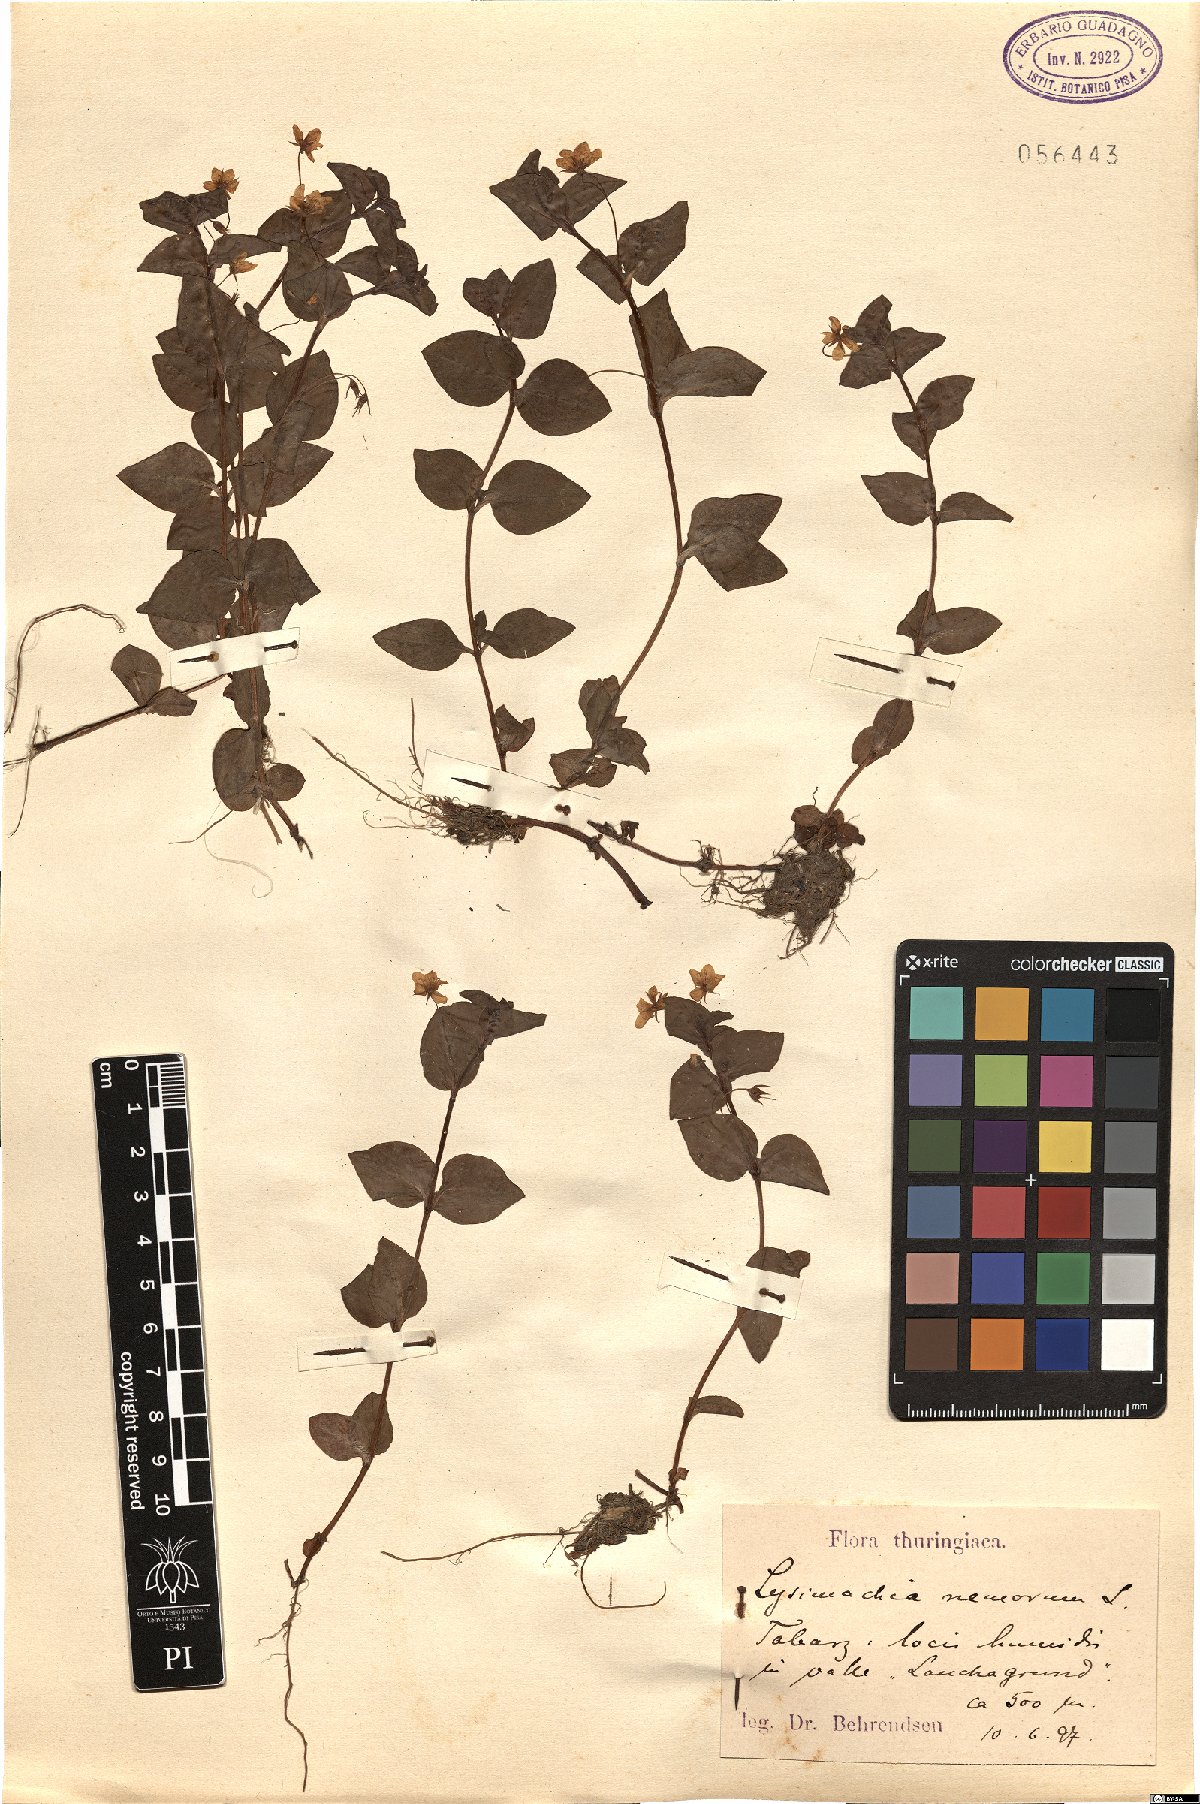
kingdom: Plantae
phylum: Tracheophyta
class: Magnoliopsida
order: Ericales
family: Primulaceae
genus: Lysimachia
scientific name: Lysimachia nemorum
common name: Yellow pimpernel
